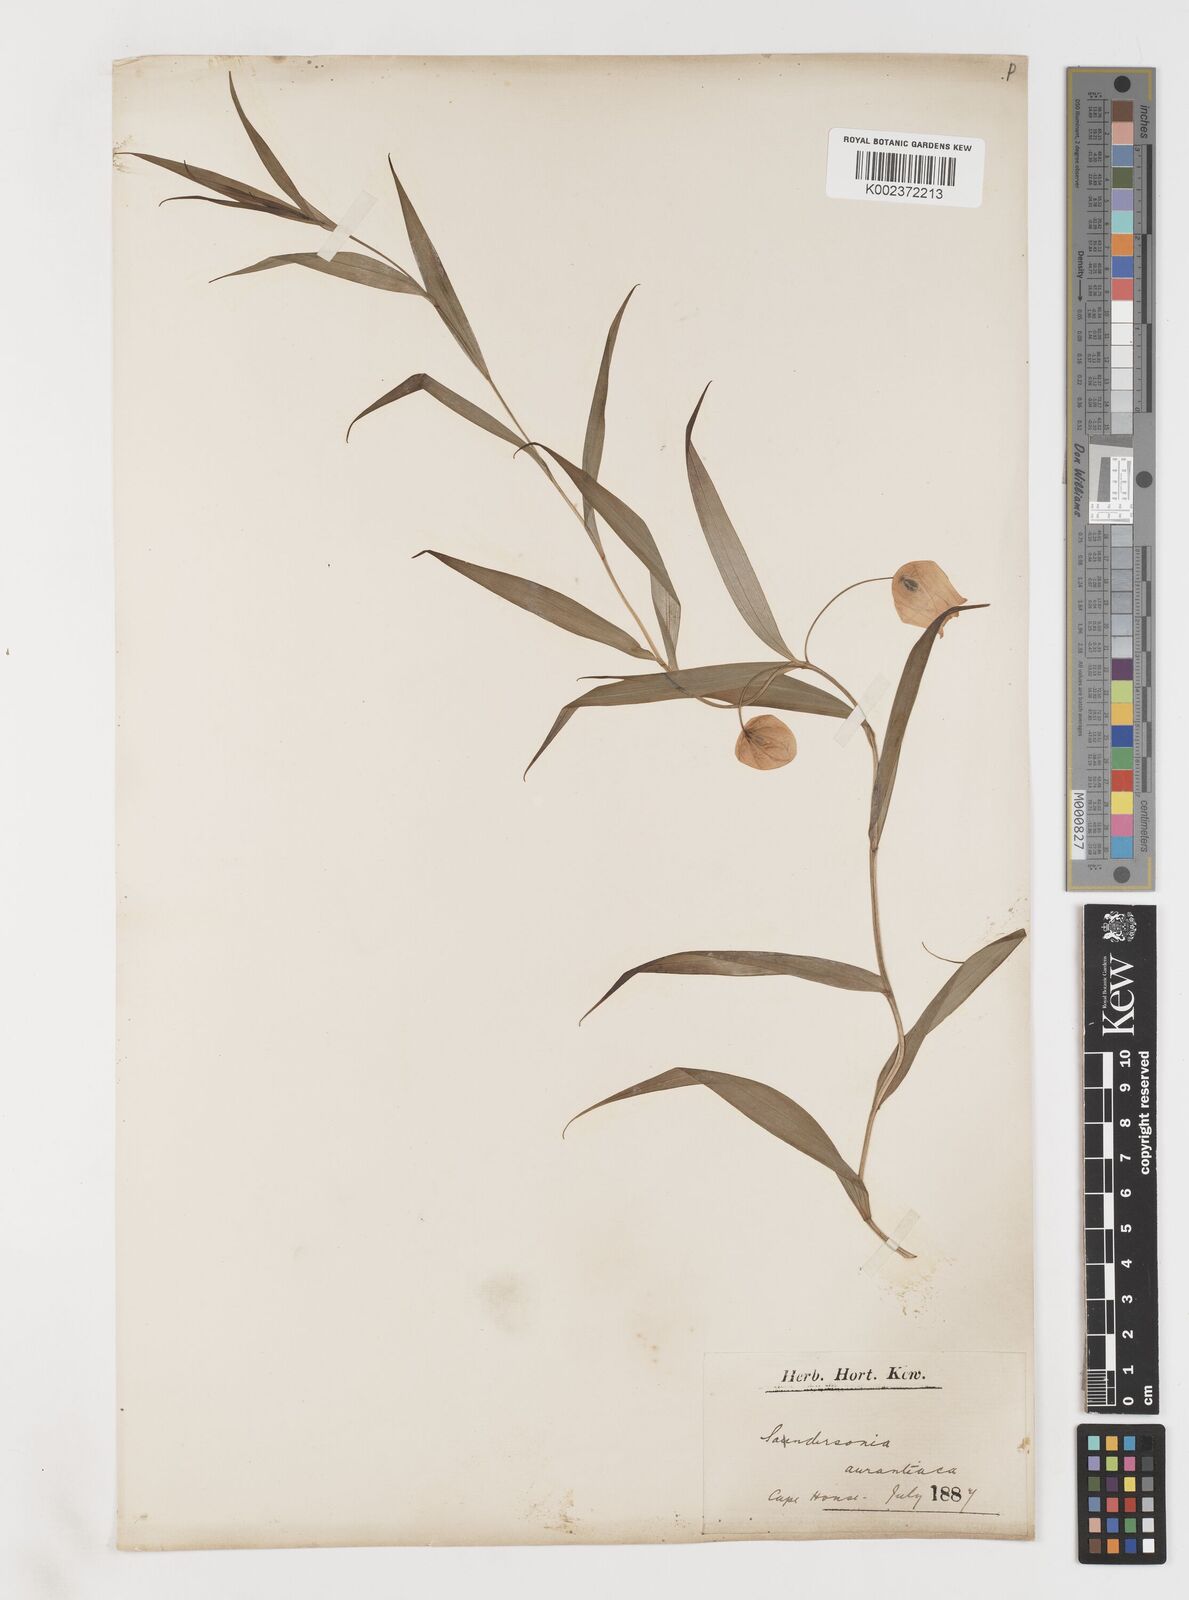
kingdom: Plantae
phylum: Tracheophyta
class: Liliopsida
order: Liliales
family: Colchicaceae
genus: Sandersonia
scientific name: Sandersonia aurantiaca
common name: Chinese-lantern-lily
